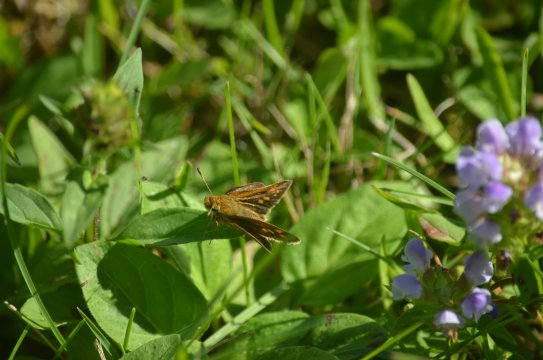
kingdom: Animalia
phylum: Arthropoda
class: Insecta
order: Lepidoptera
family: Hesperiidae
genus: Polites
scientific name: Polites themistocles
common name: Tawny-edged Skipper
